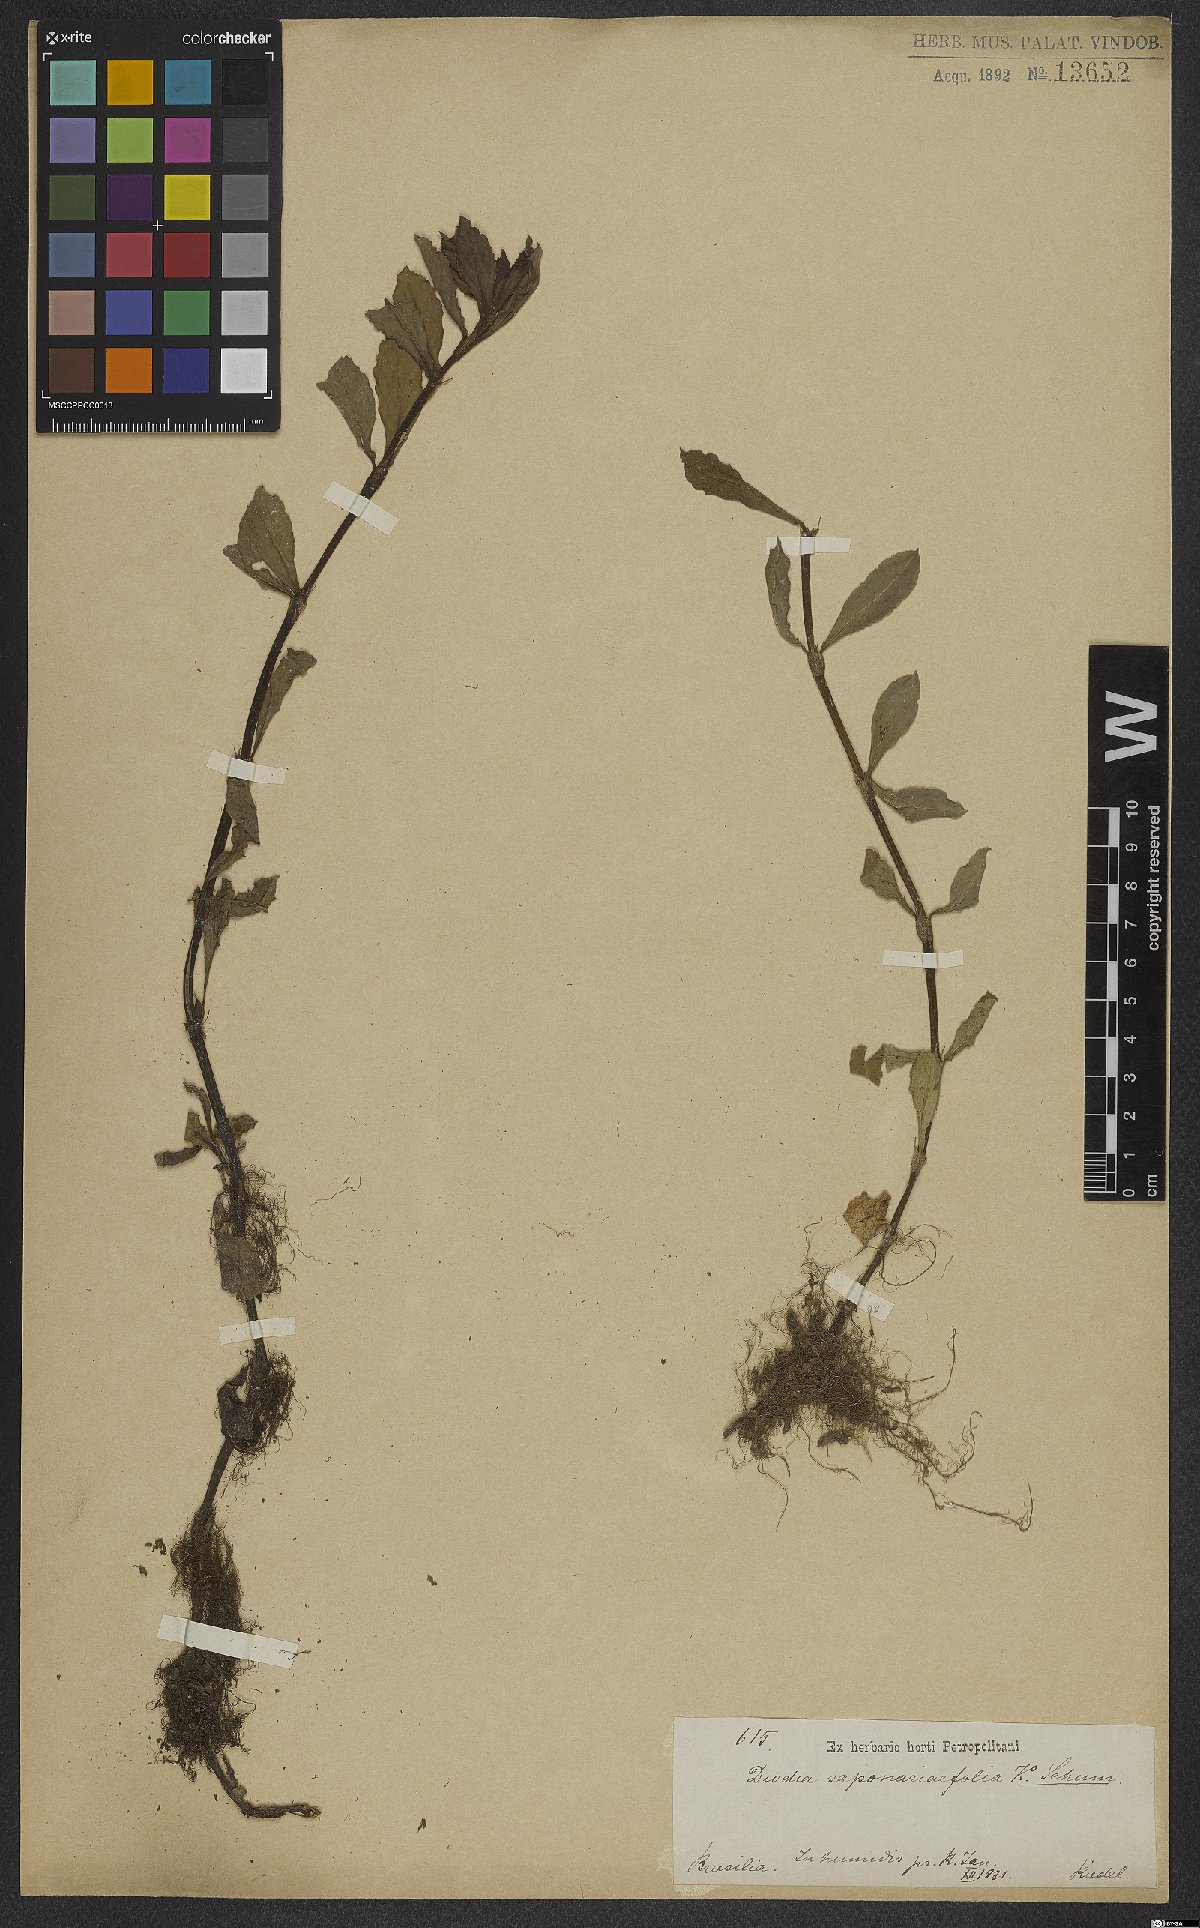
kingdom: Plantae
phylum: Tracheophyta
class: Magnoliopsida
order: Gentianales
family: Rubiaceae
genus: Diodia
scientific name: Diodia saponariifolia
